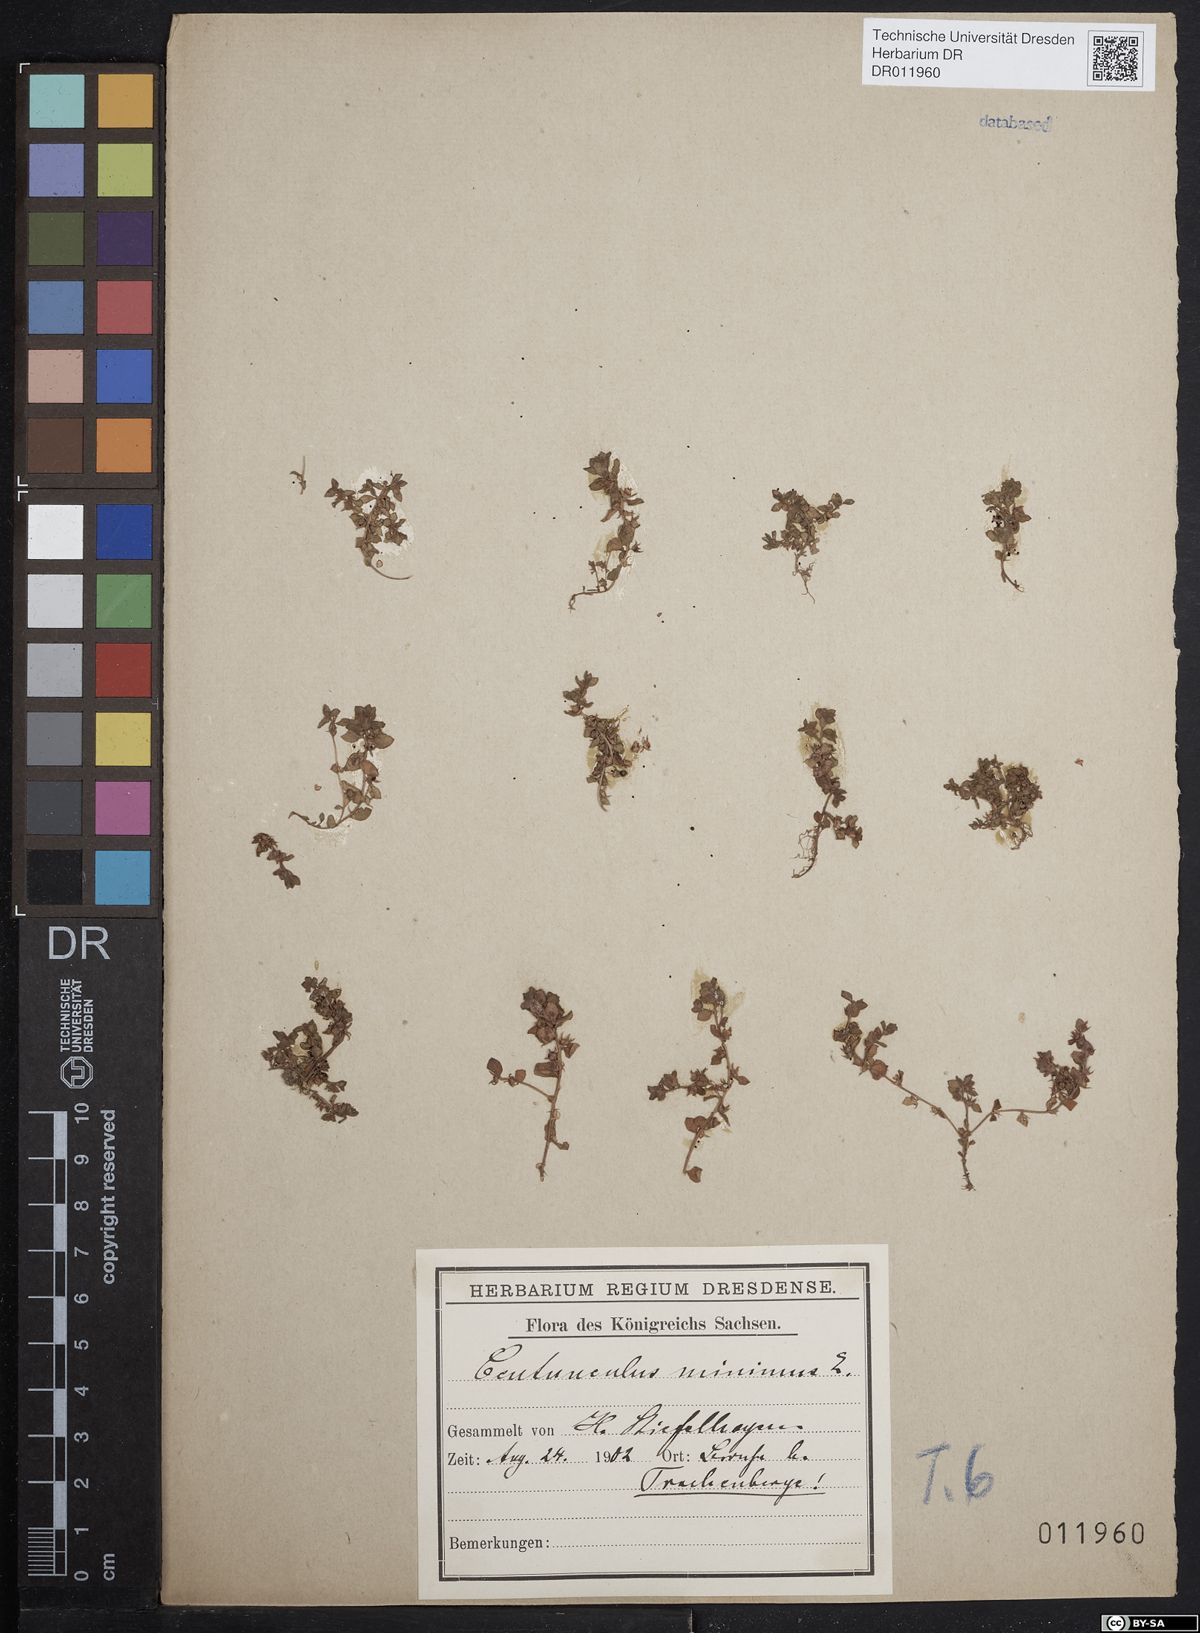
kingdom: Plantae
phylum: Tracheophyta
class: Magnoliopsida
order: Ericales
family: Primulaceae
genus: Lysimachia
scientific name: Lysimachia minima
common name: Chaffweed
